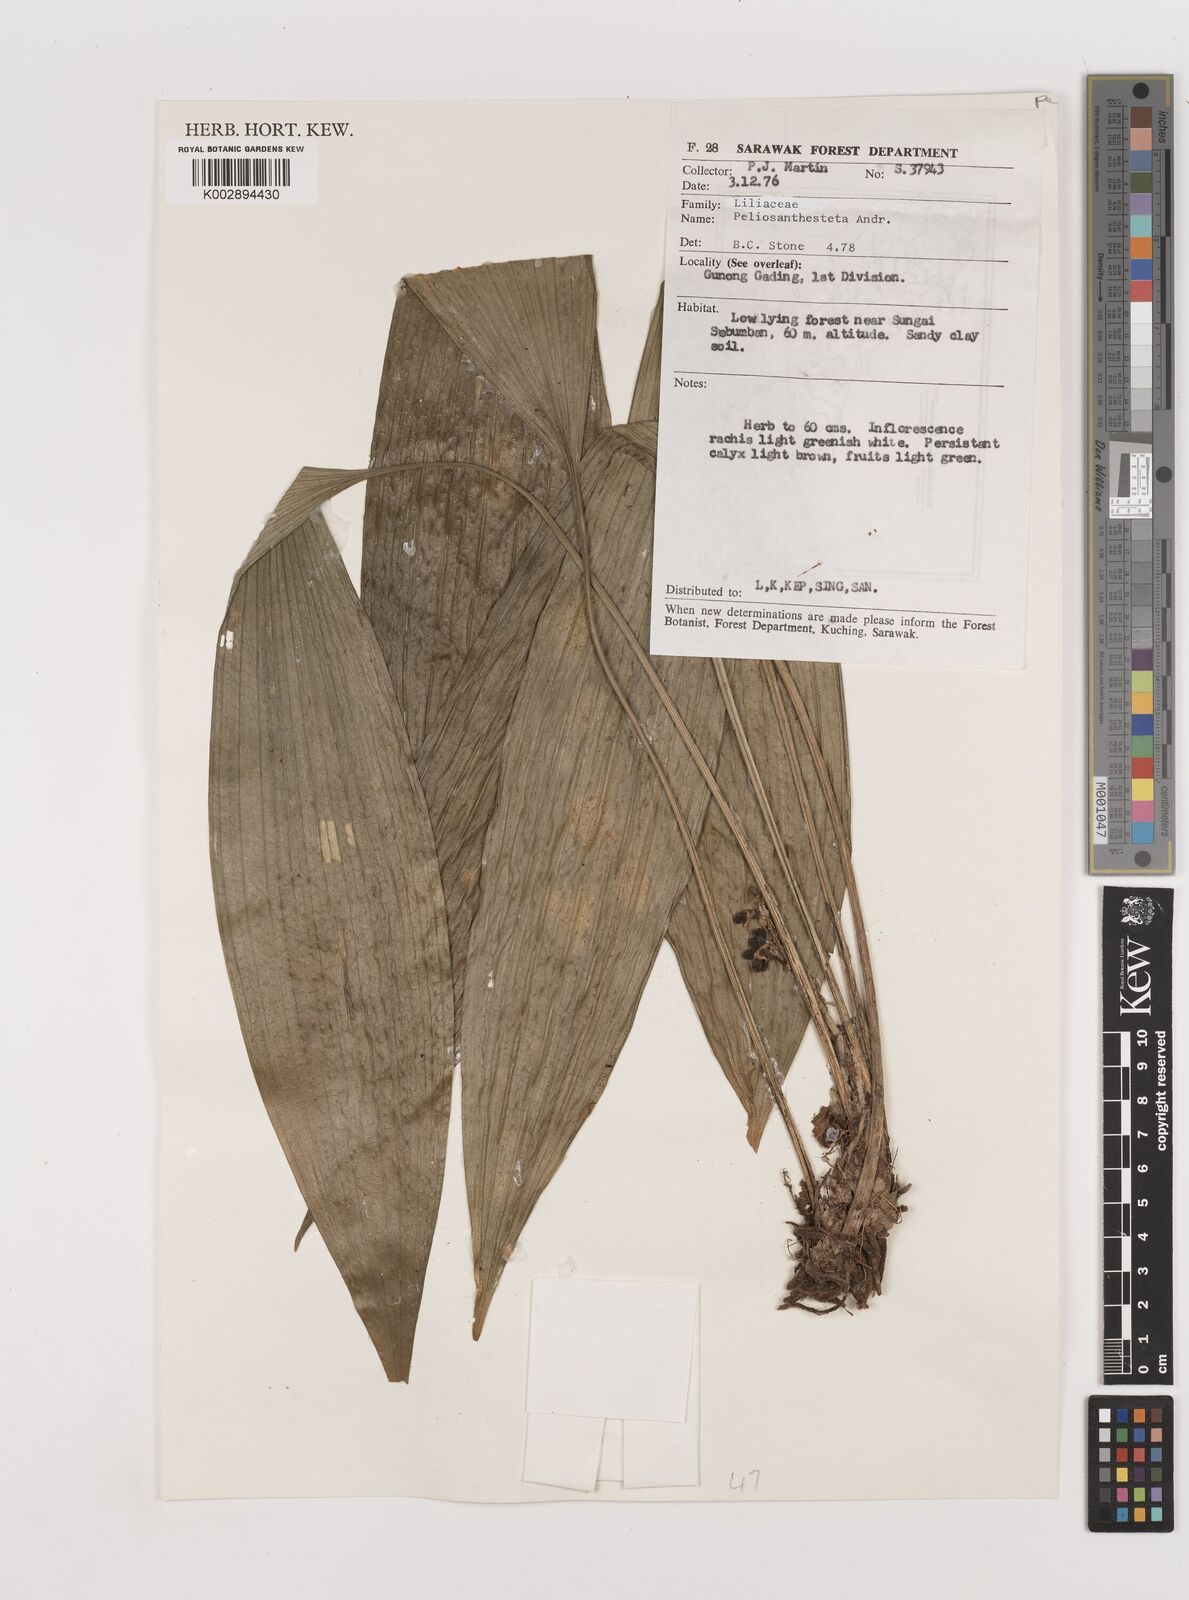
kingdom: Plantae
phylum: Tracheophyta
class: Liliopsida
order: Asparagales
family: Asparagaceae
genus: Peliosanthes
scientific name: Peliosanthes teta
